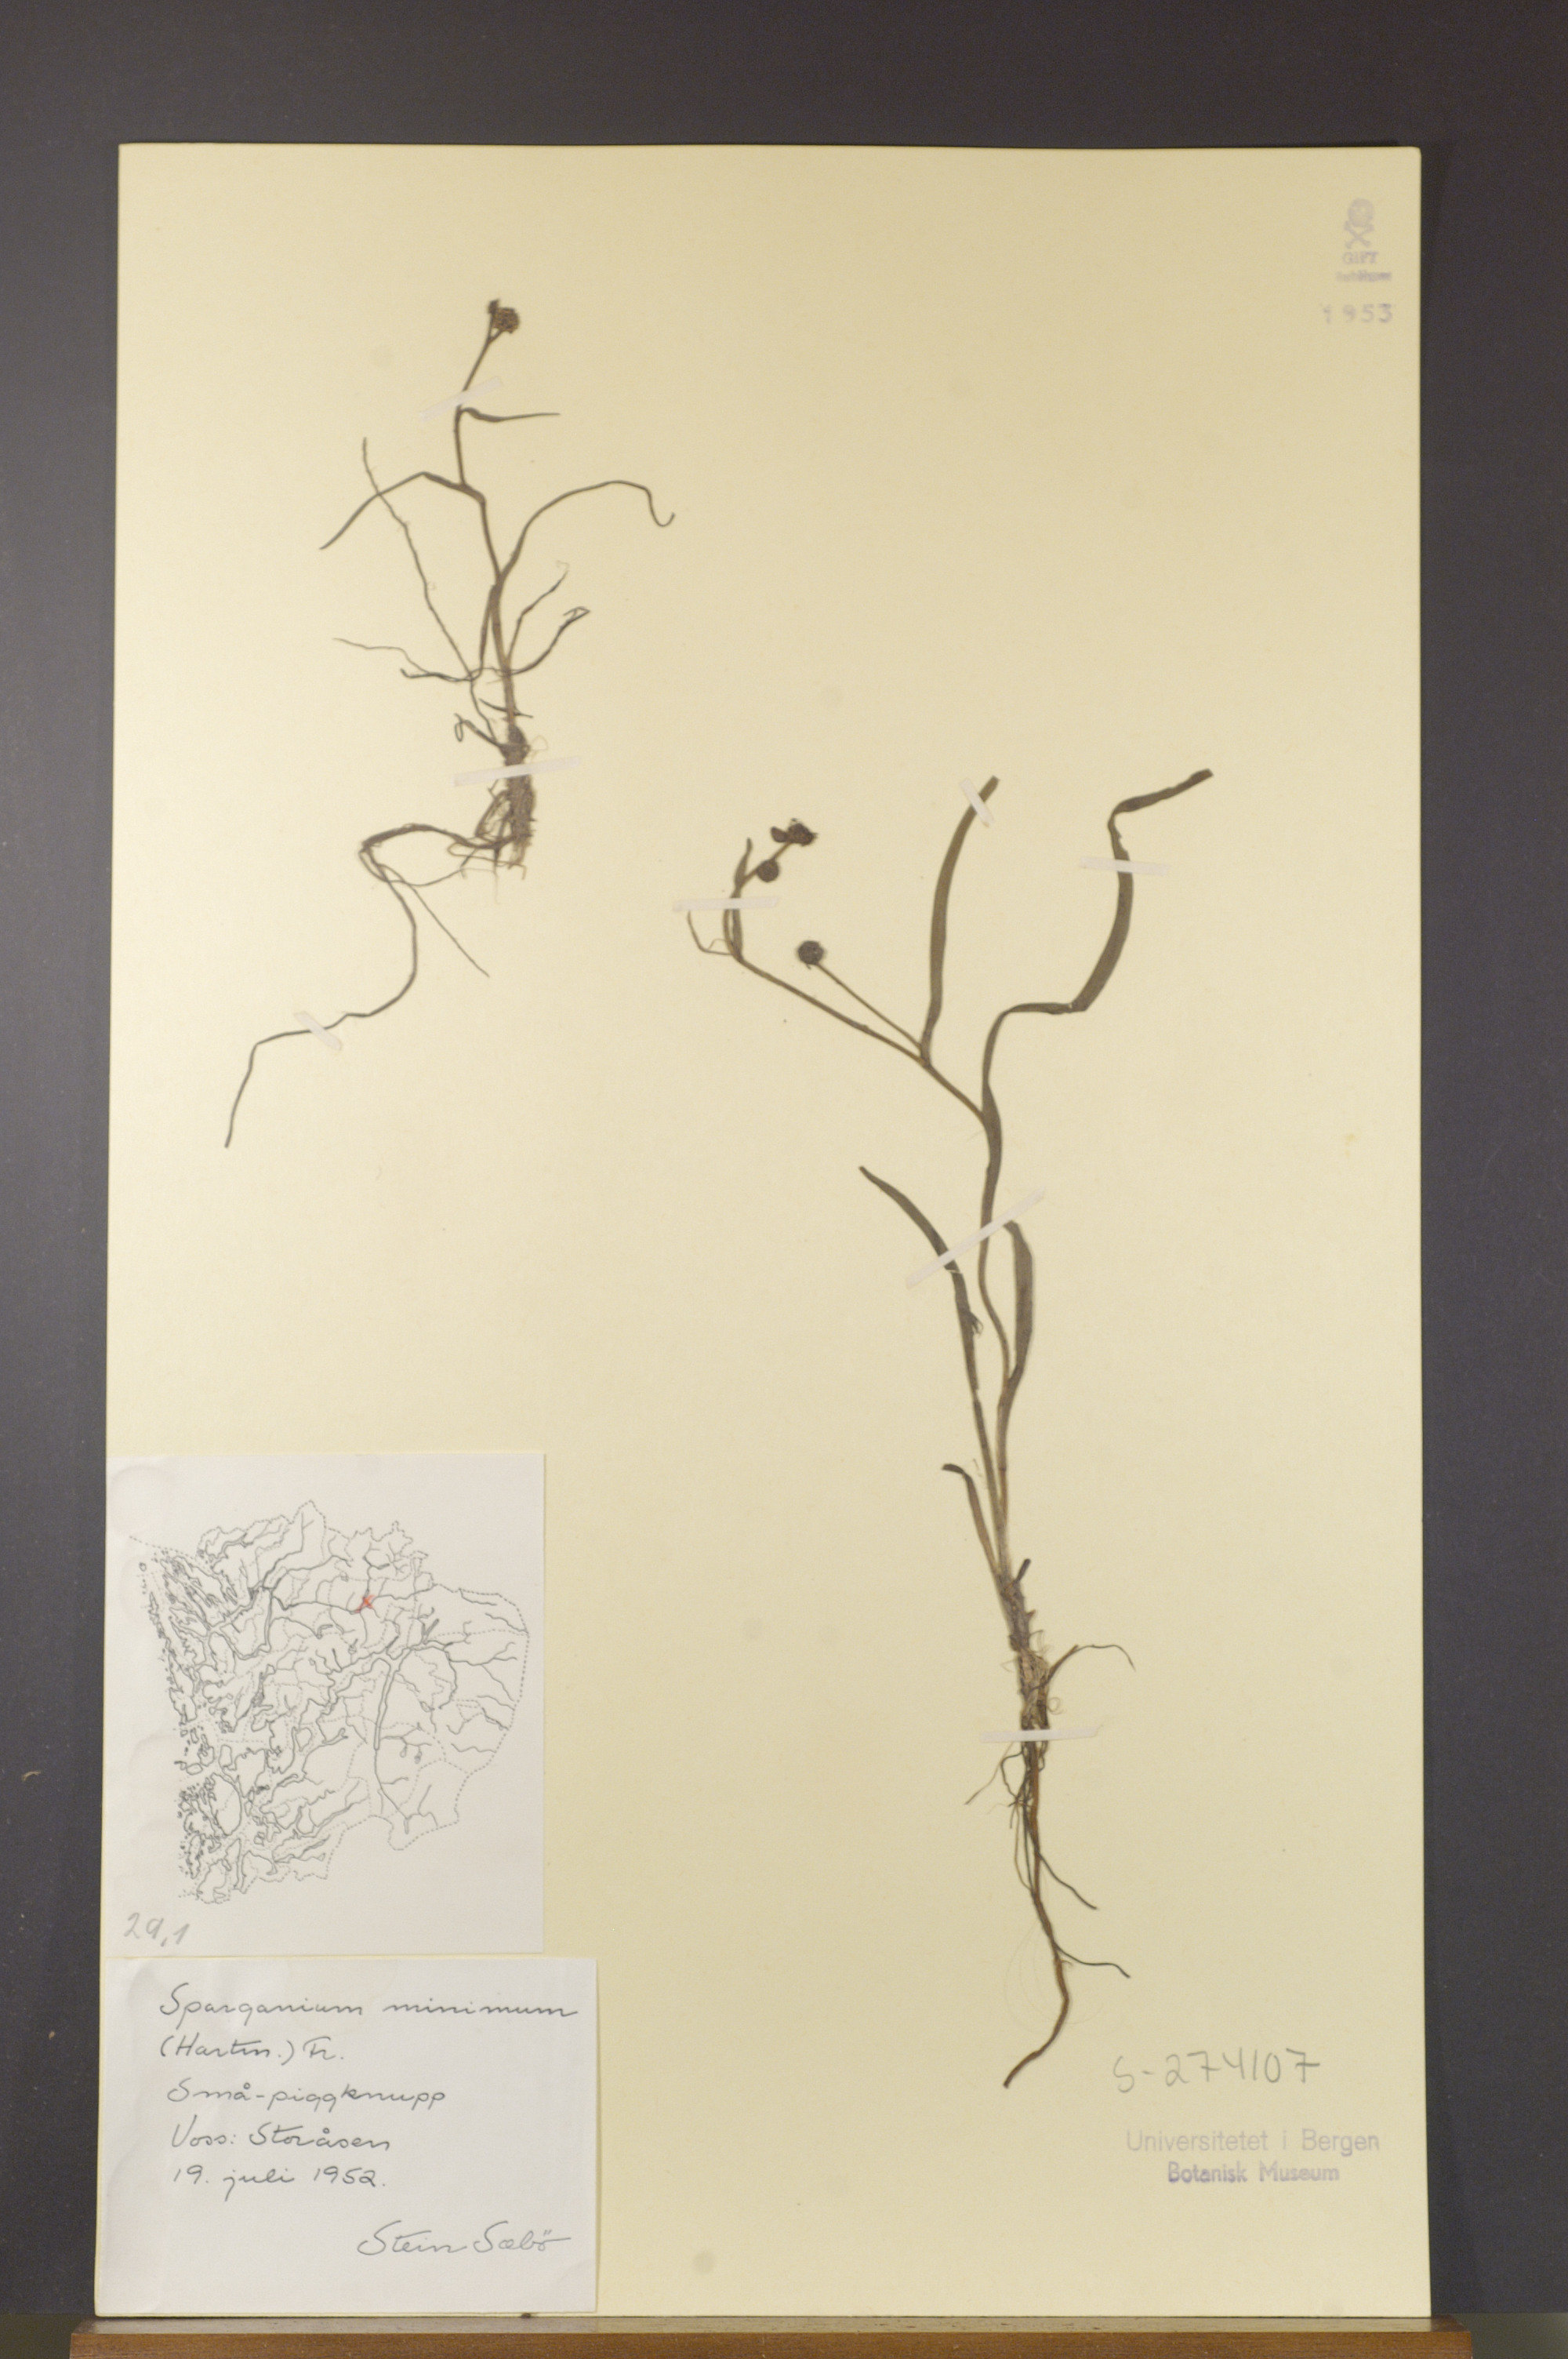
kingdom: Plantae
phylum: Tracheophyta
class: Liliopsida
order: Poales
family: Typhaceae
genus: Sparganium
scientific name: Sparganium natans
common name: Least bur-reed
